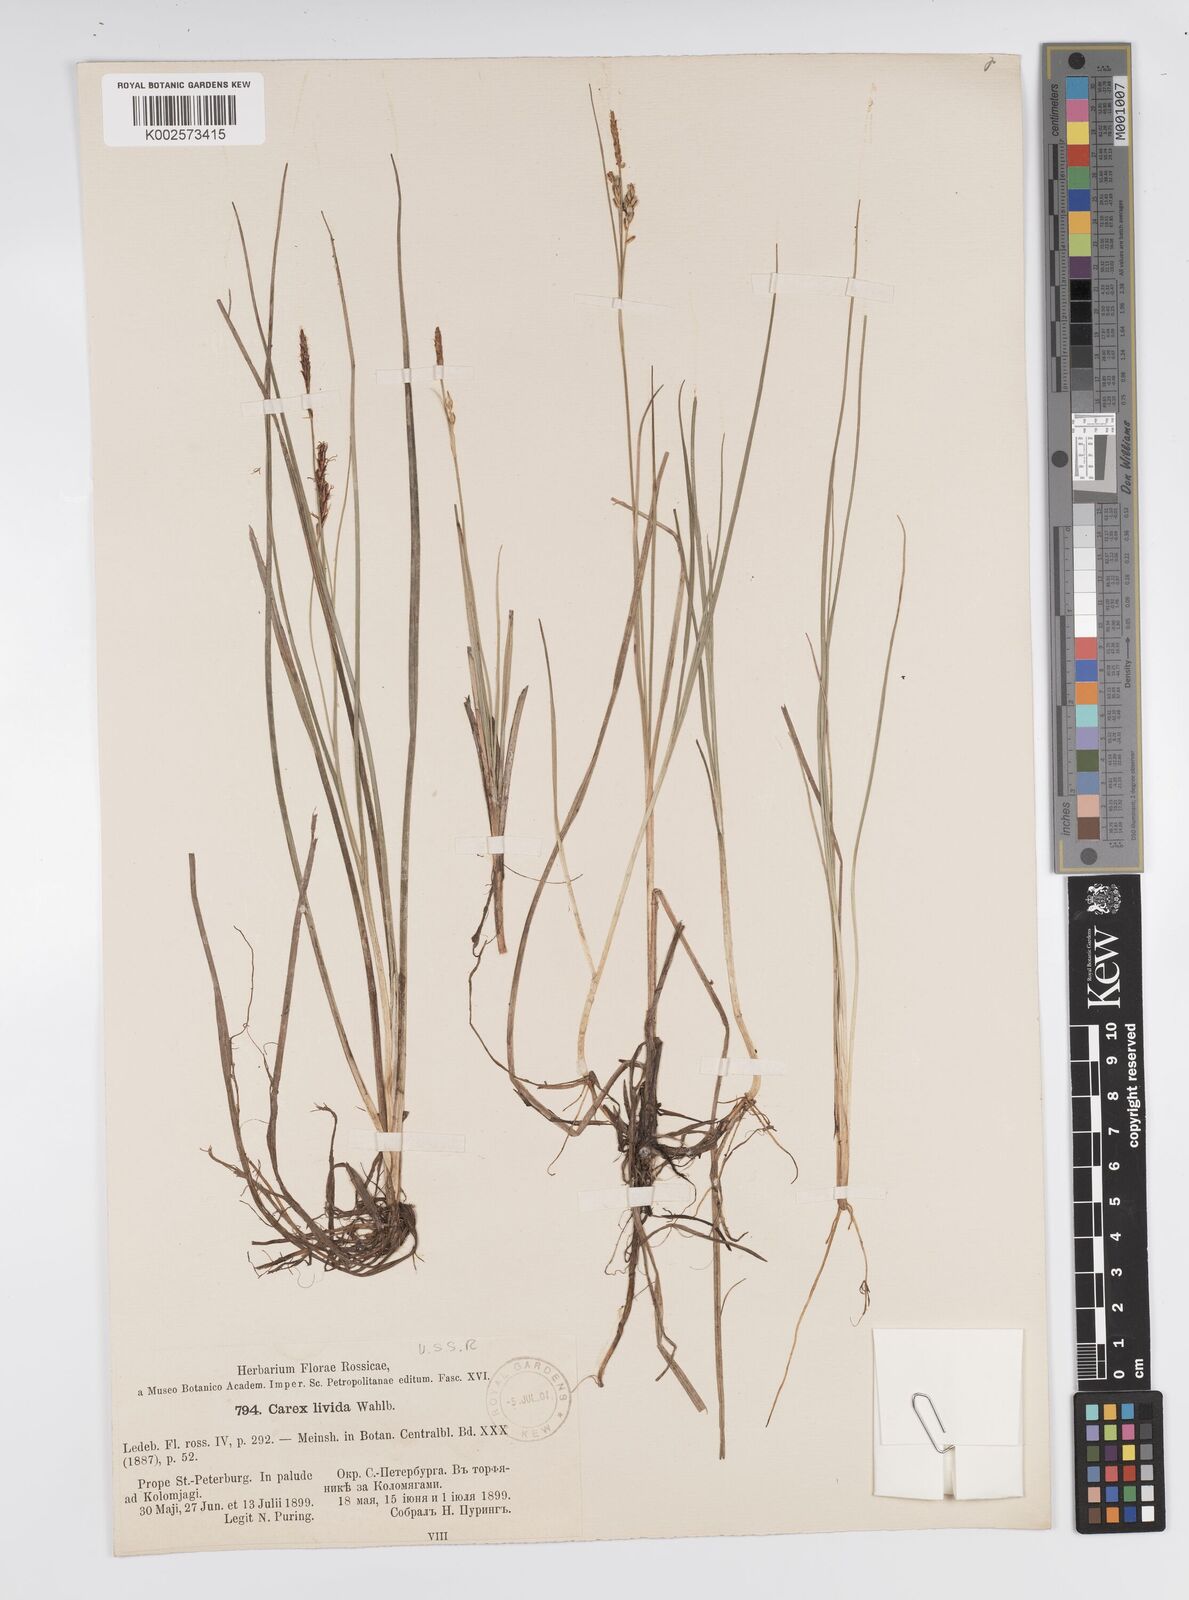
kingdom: Plantae
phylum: Tracheophyta
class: Liliopsida
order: Poales
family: Cyperaceae
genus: Carex
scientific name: Carex livida
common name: Livid sedge
